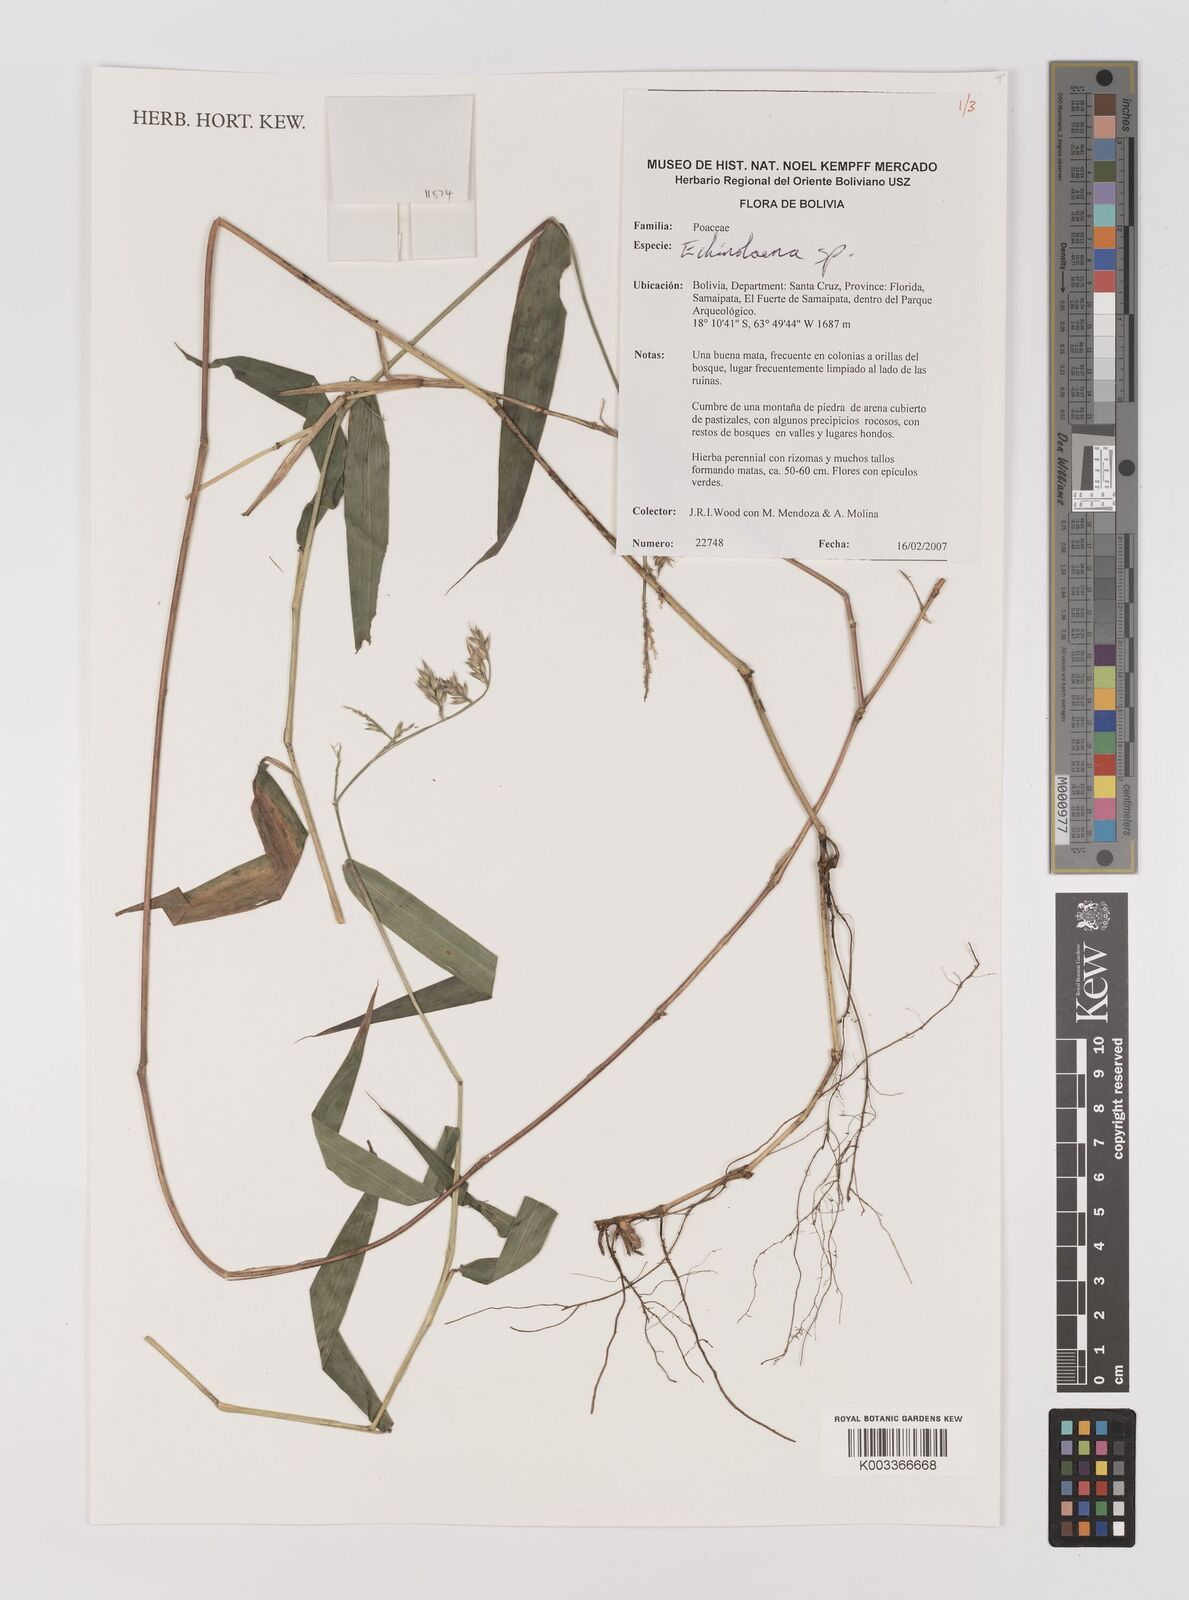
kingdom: Plantae
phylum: Tracheophyta
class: Liliopsida
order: Poales
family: Poaceae
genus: Oedochloa
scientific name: Oedochloa minarum
